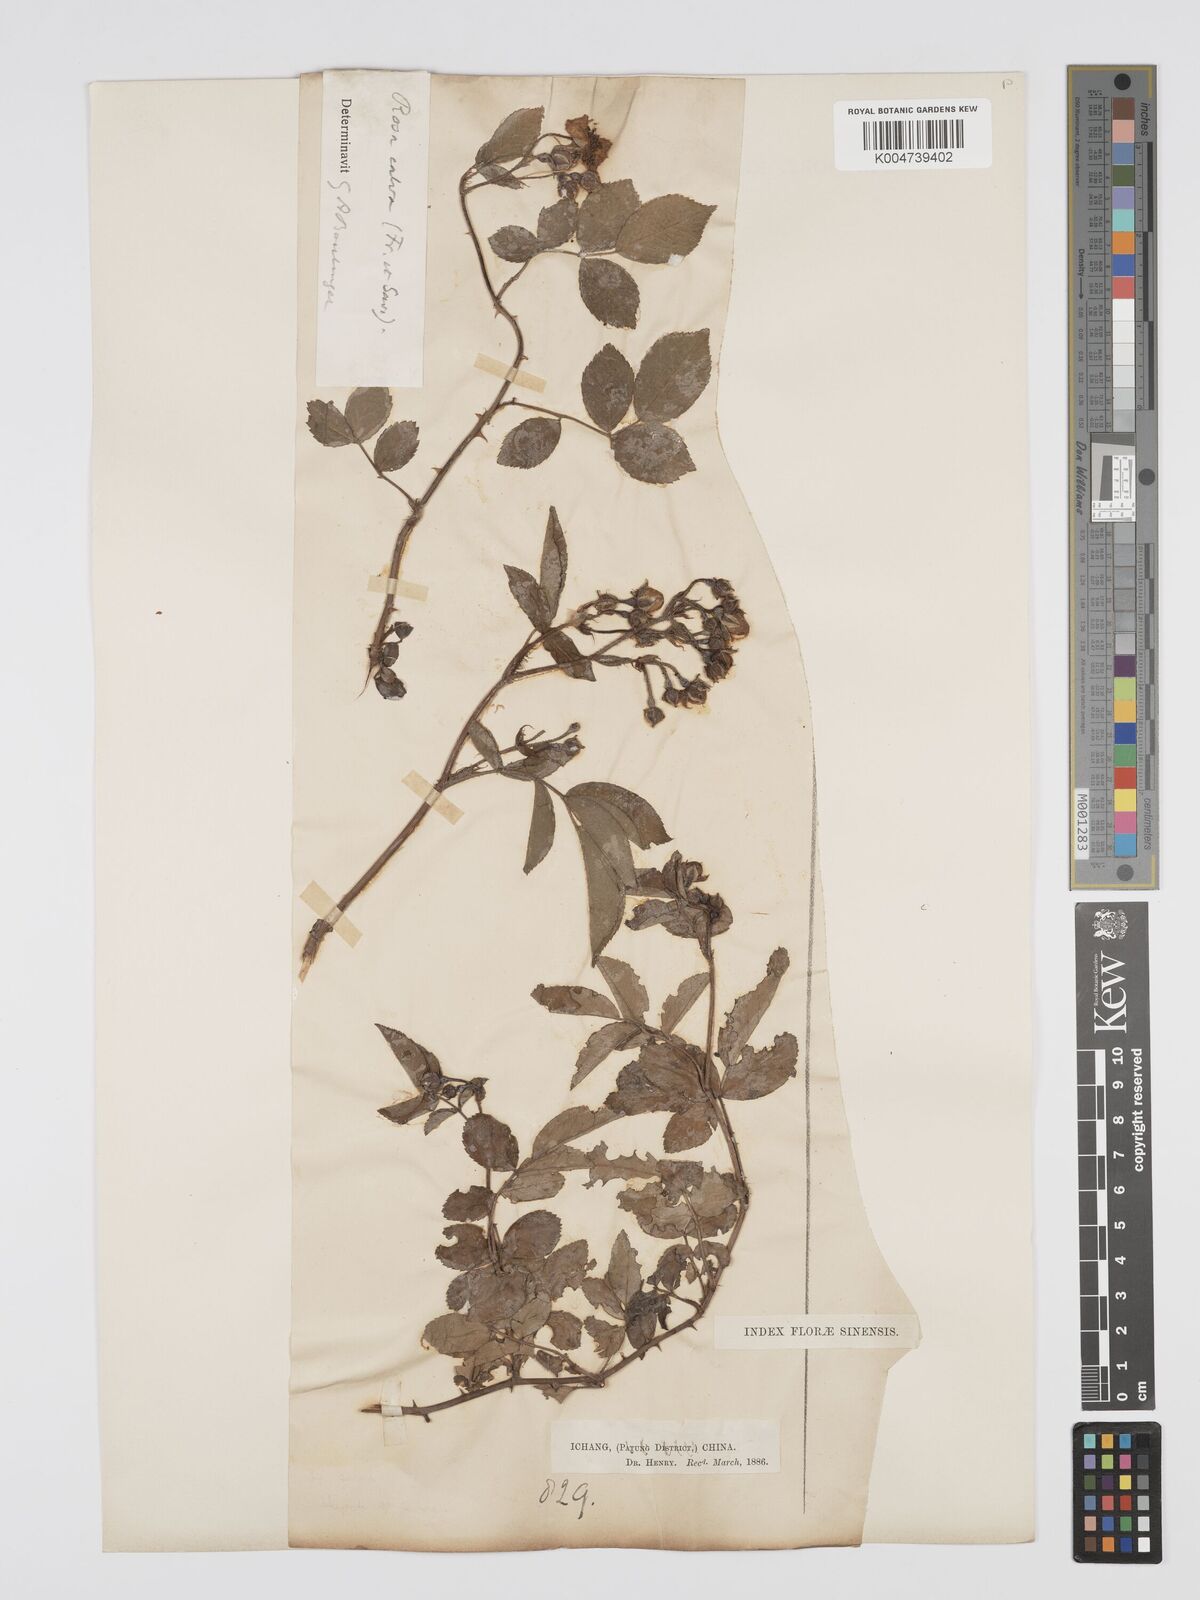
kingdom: Plantae
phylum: Tracheophyta
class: Magnoliopsida
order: Rosales
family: Rosaceae
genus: Rosa
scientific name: Rosa
